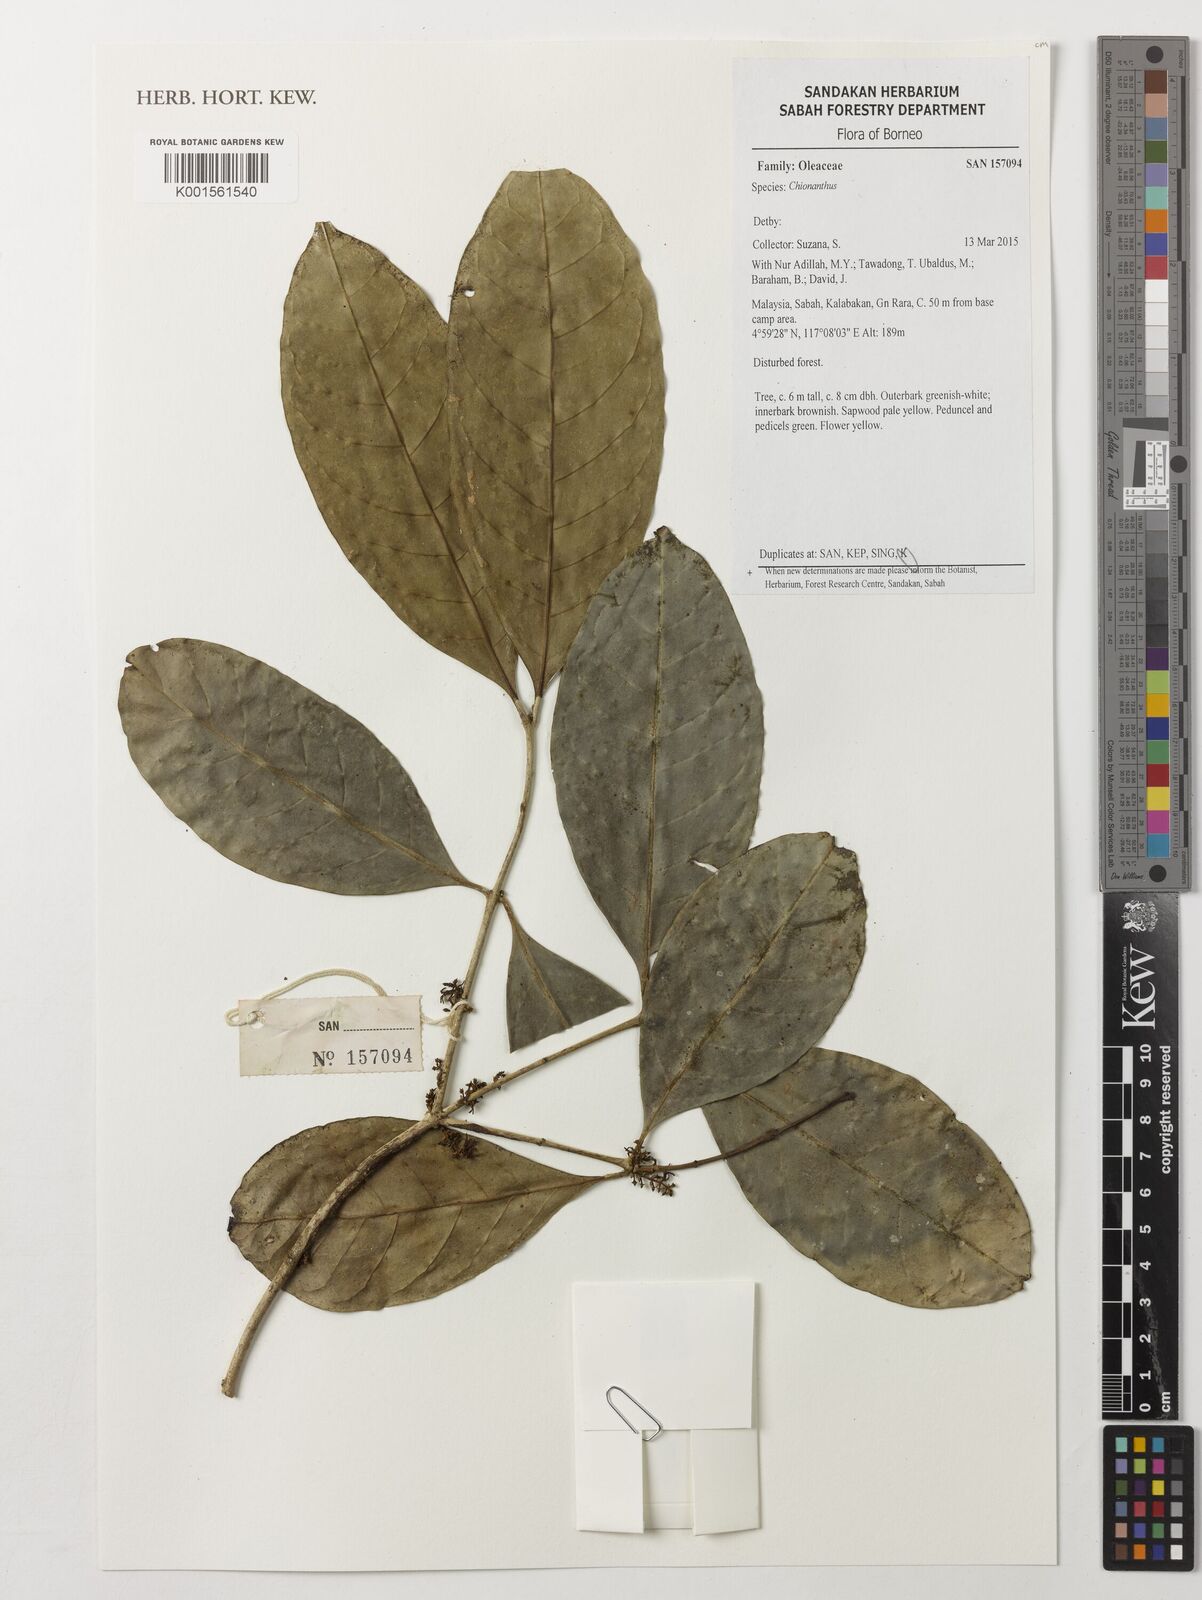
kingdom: Plantae
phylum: Tracheophyta
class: Magnoliopsida
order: Lamiales
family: Oleaceae
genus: Chionanthus
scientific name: Chionanthus
